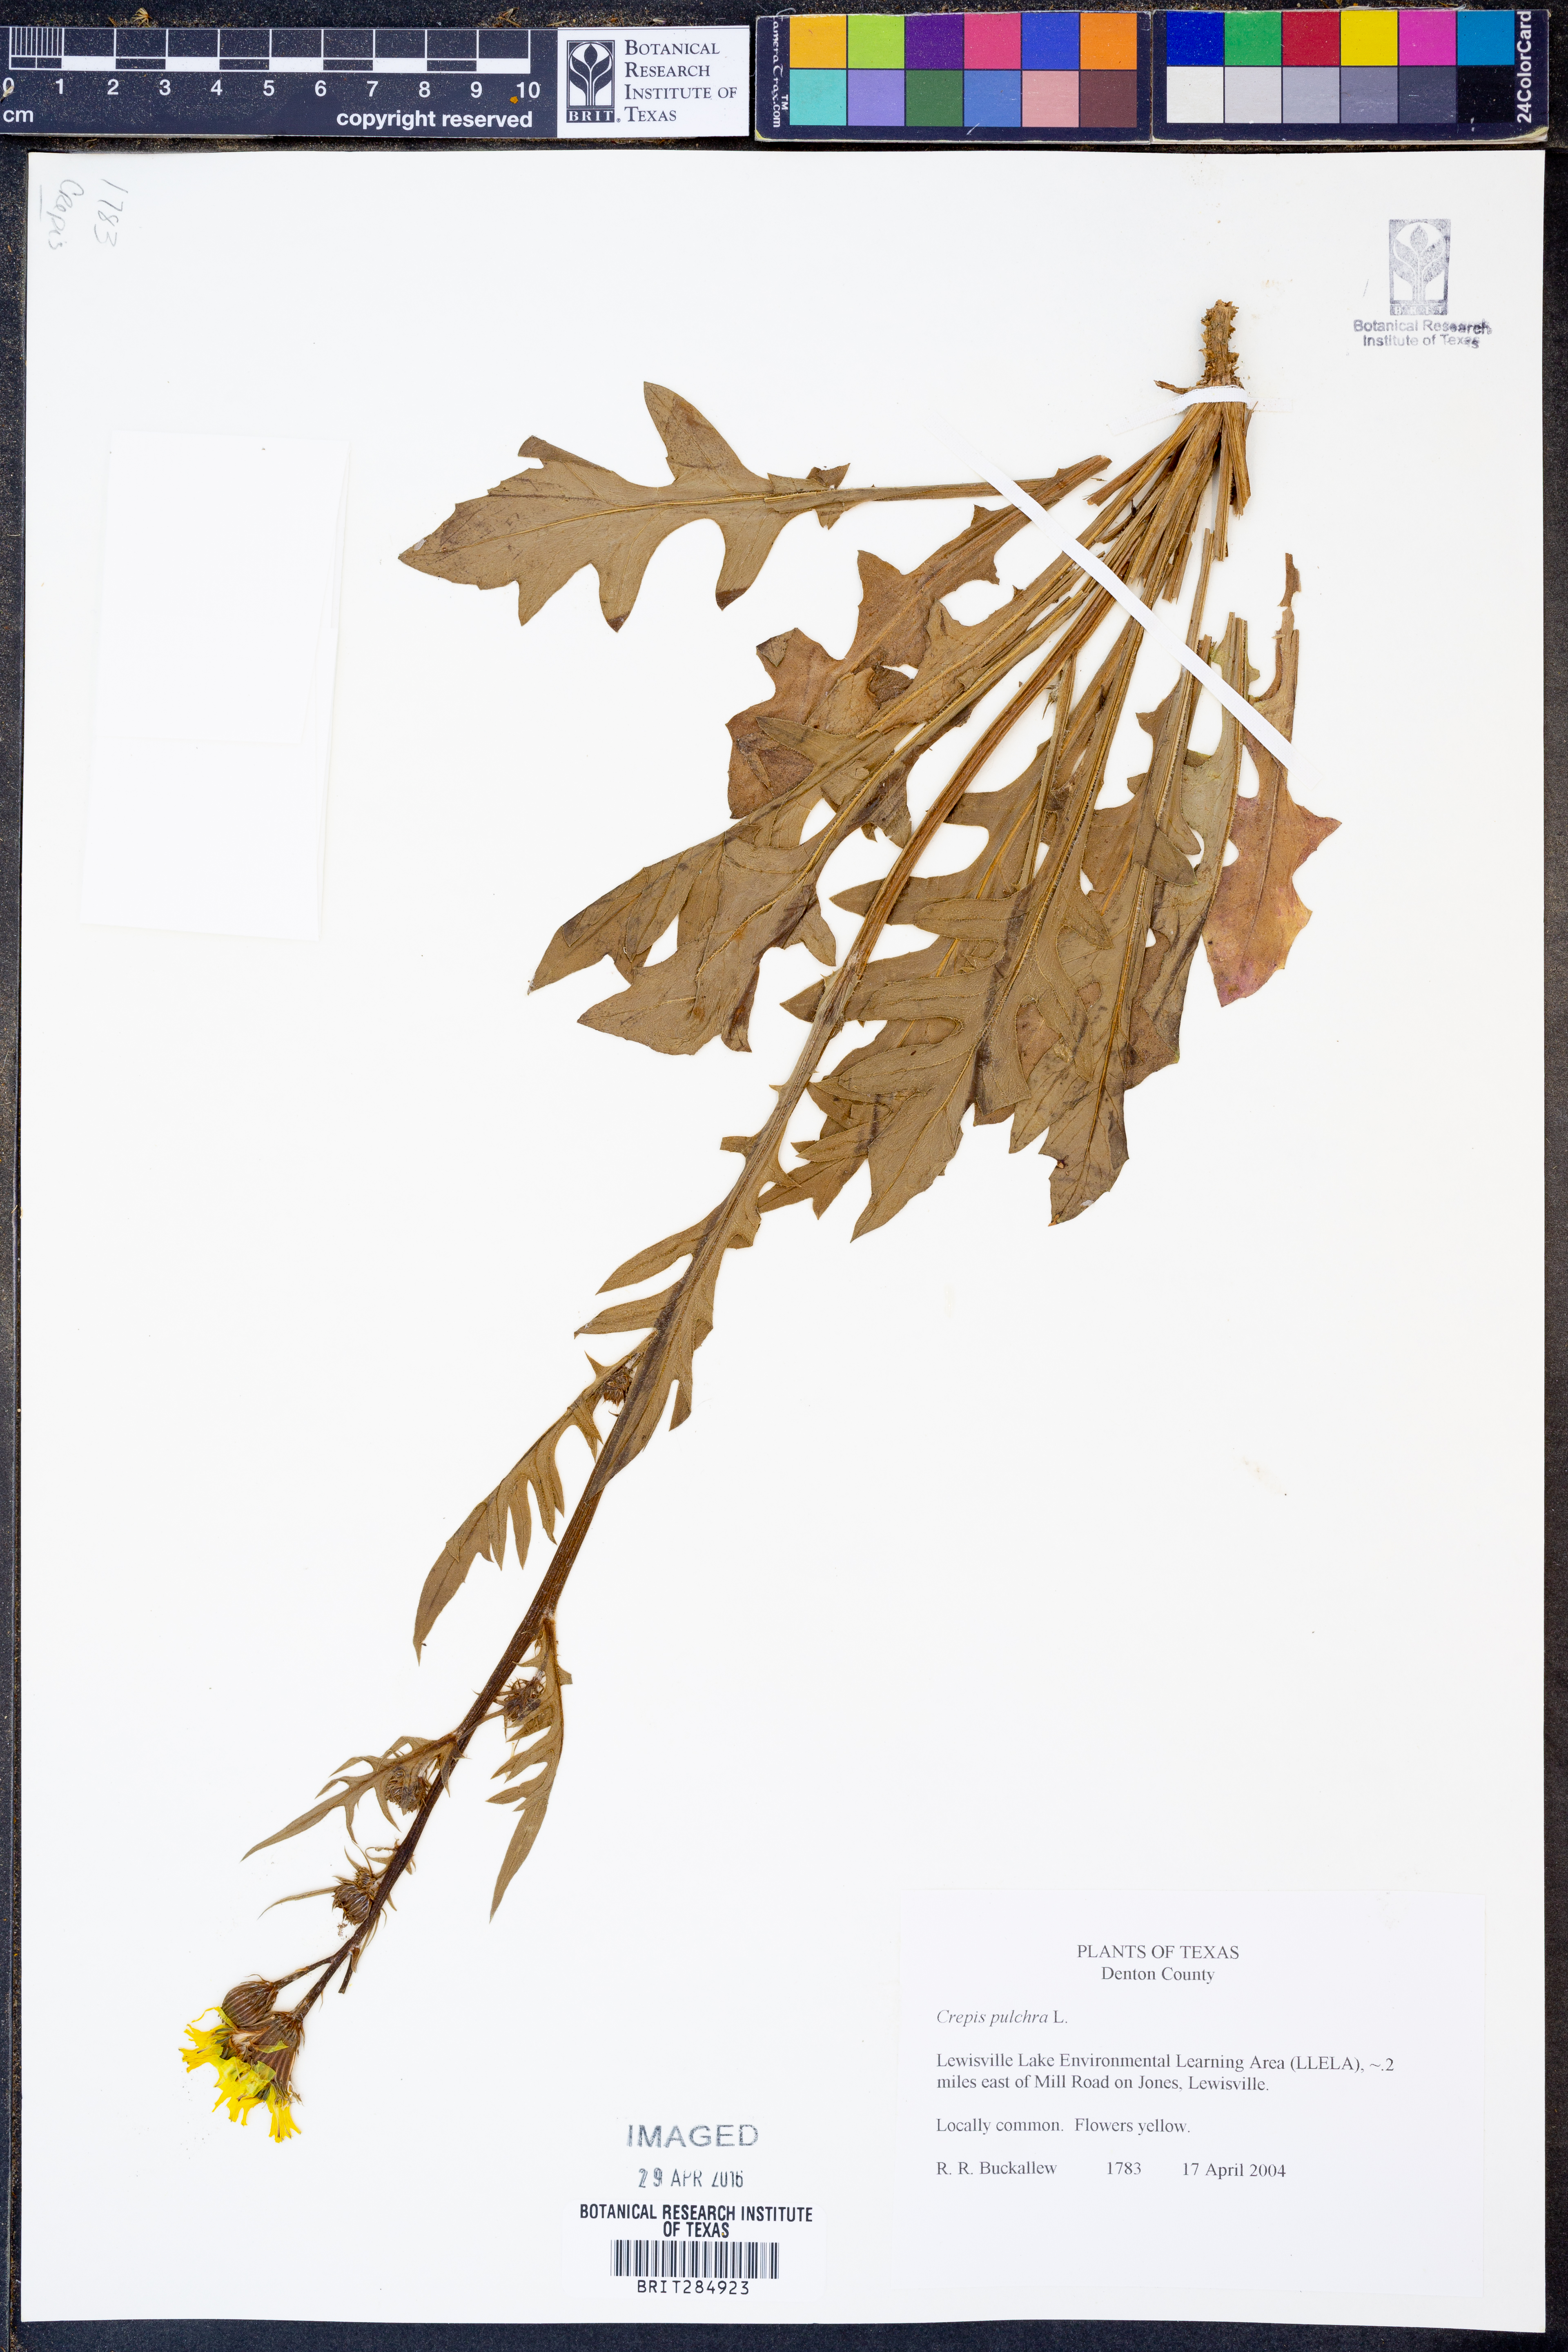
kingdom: Plantae
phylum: Tracheophyta
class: Magnoliopsida
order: Asterales
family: Asteraceae
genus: Crepis
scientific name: Crepis pulchra
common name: Hawk's-beard
